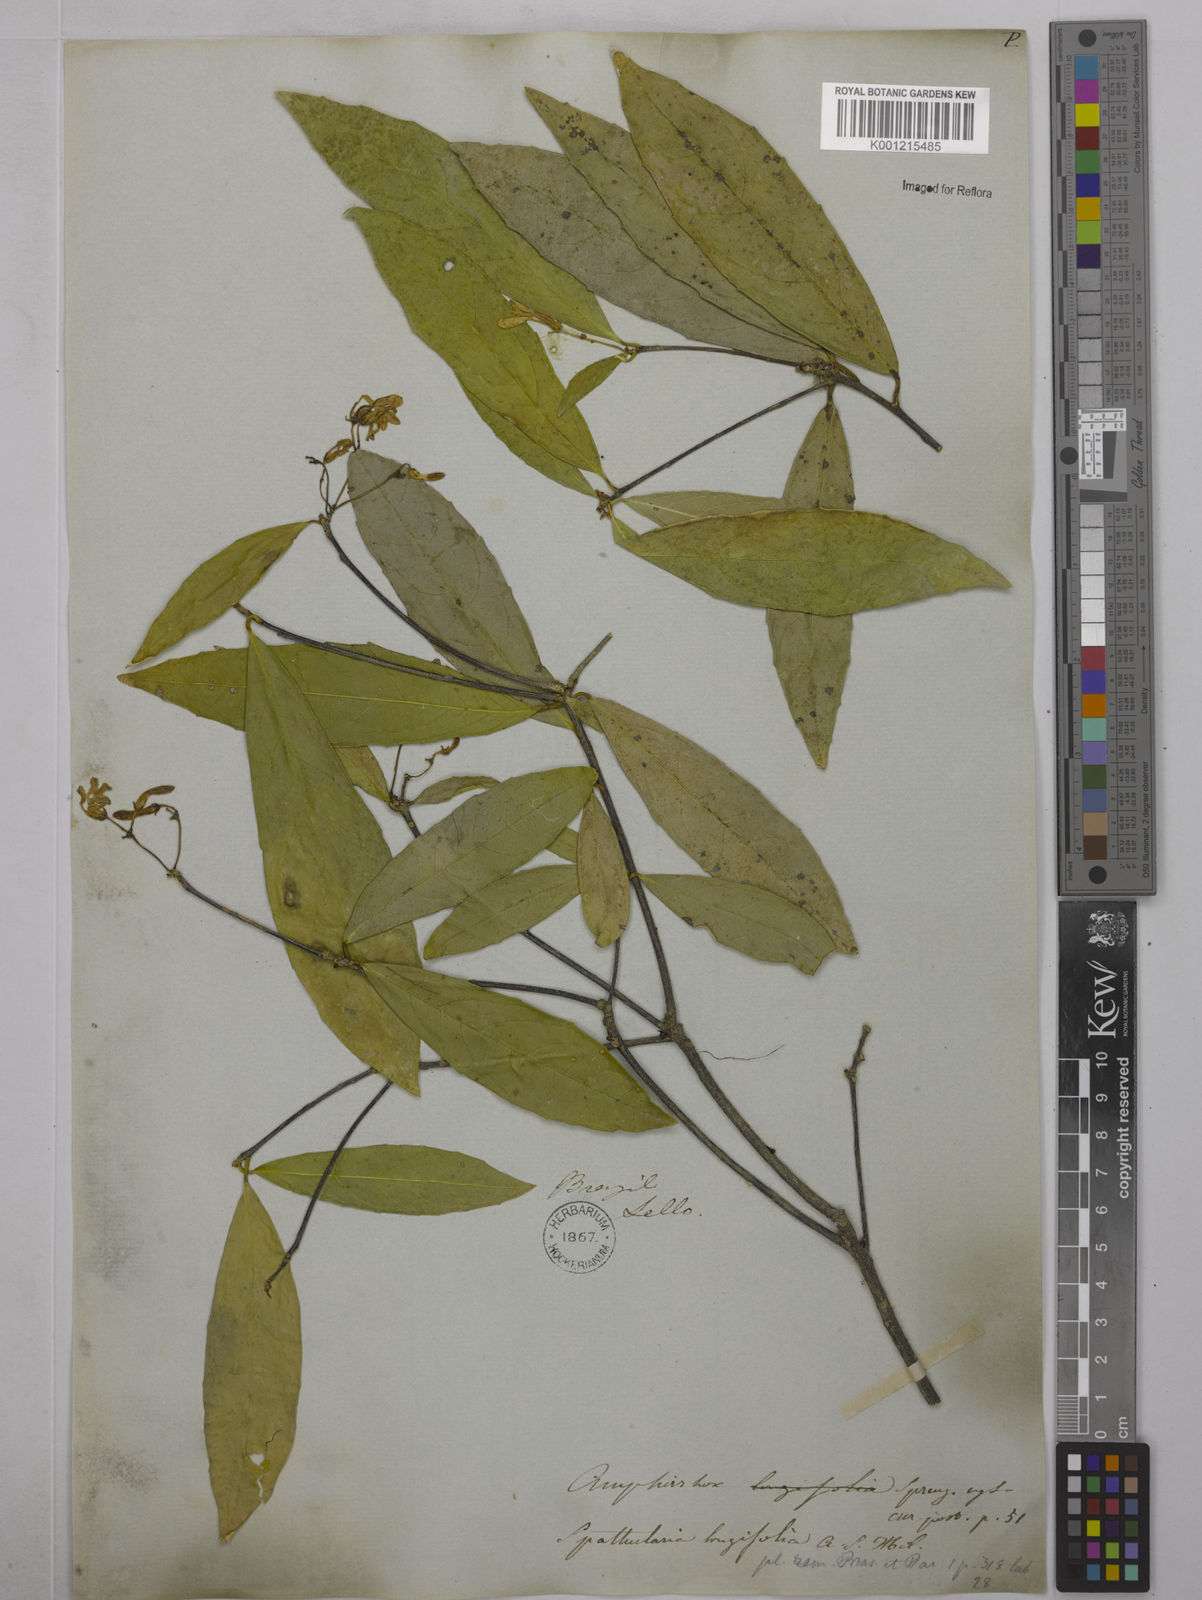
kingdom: Plantae
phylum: Tracheophyta
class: Magnoliopsida
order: Malpighiales
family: Violaceae
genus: Amphirrhox
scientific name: Amphirrhox longifolia
